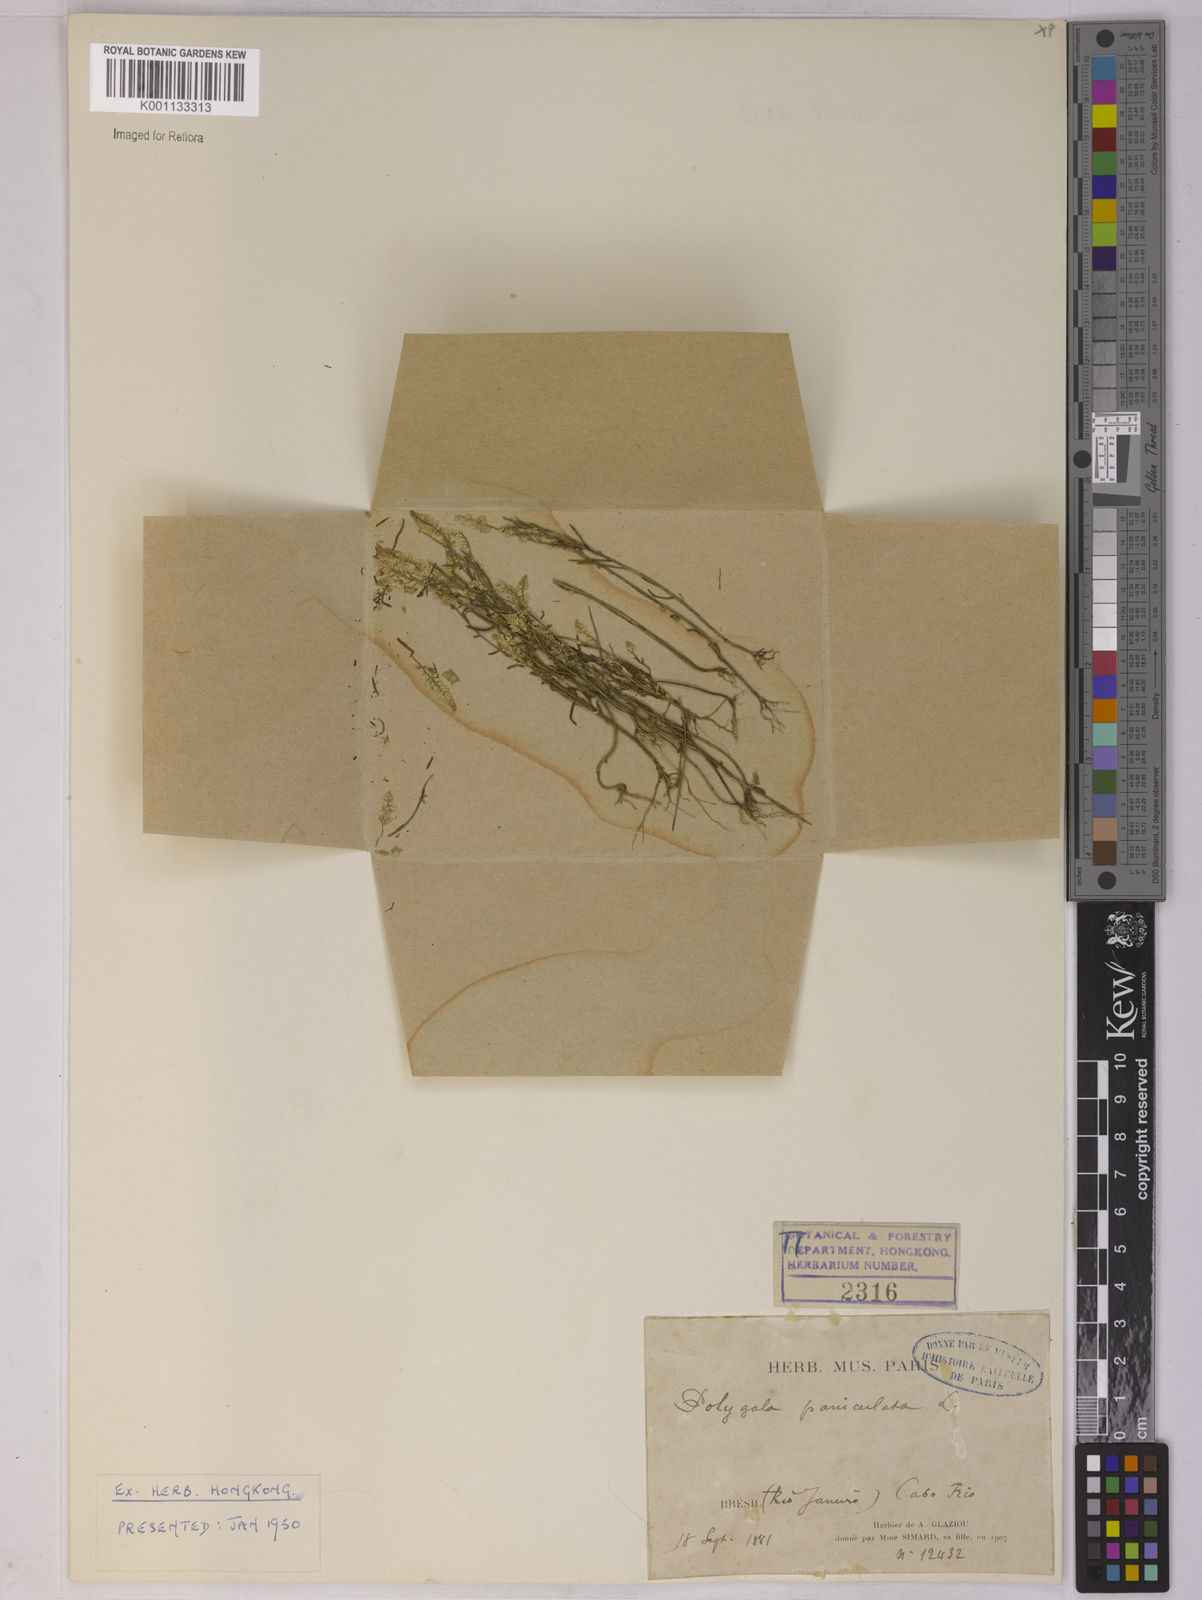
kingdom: Plantae
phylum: Tracheophyta
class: Magnoliopsida
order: Fabales
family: Polygalaceae
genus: Polygala
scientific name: Polygala paniculata
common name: Orosne
